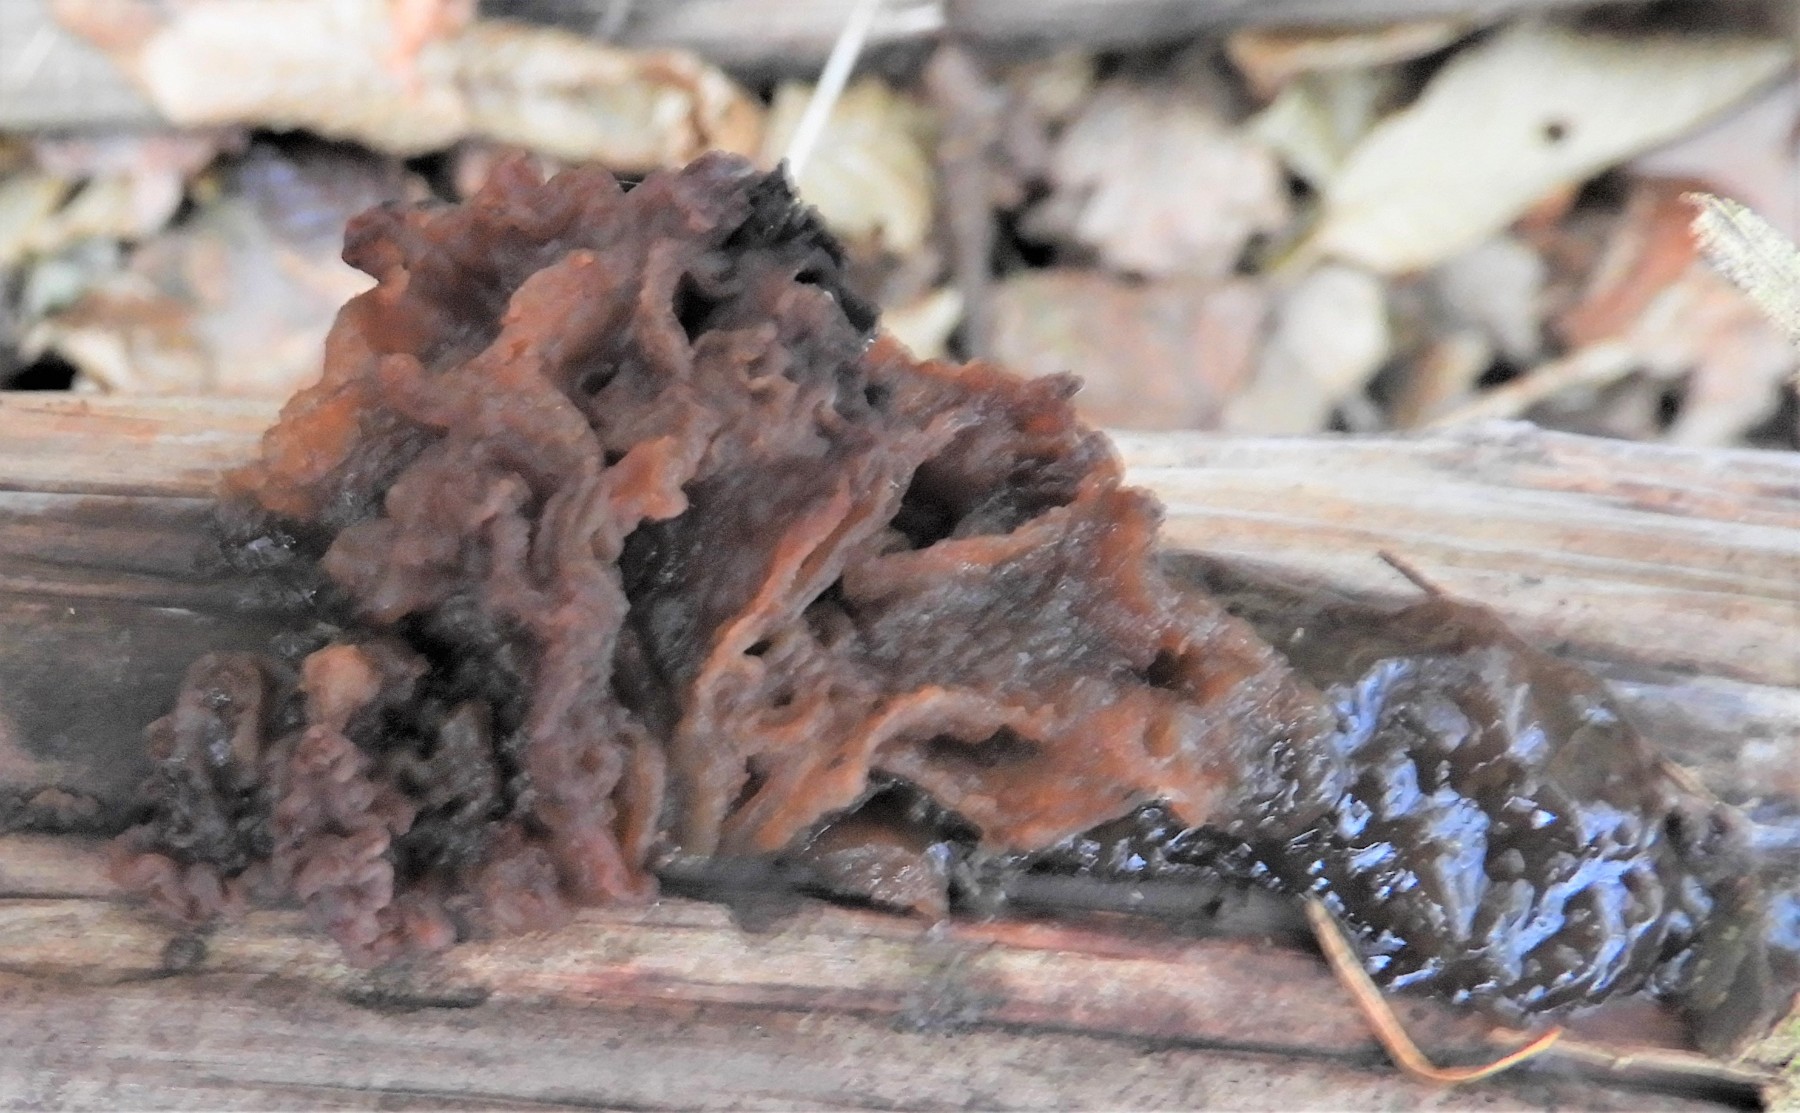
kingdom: Fungi
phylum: Basidiomycota
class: Tremellomycetes
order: Tremellales
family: Tremellaceae
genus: Phaeotremella
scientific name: Phaeotremella foliacea
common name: brun bævresvamp
